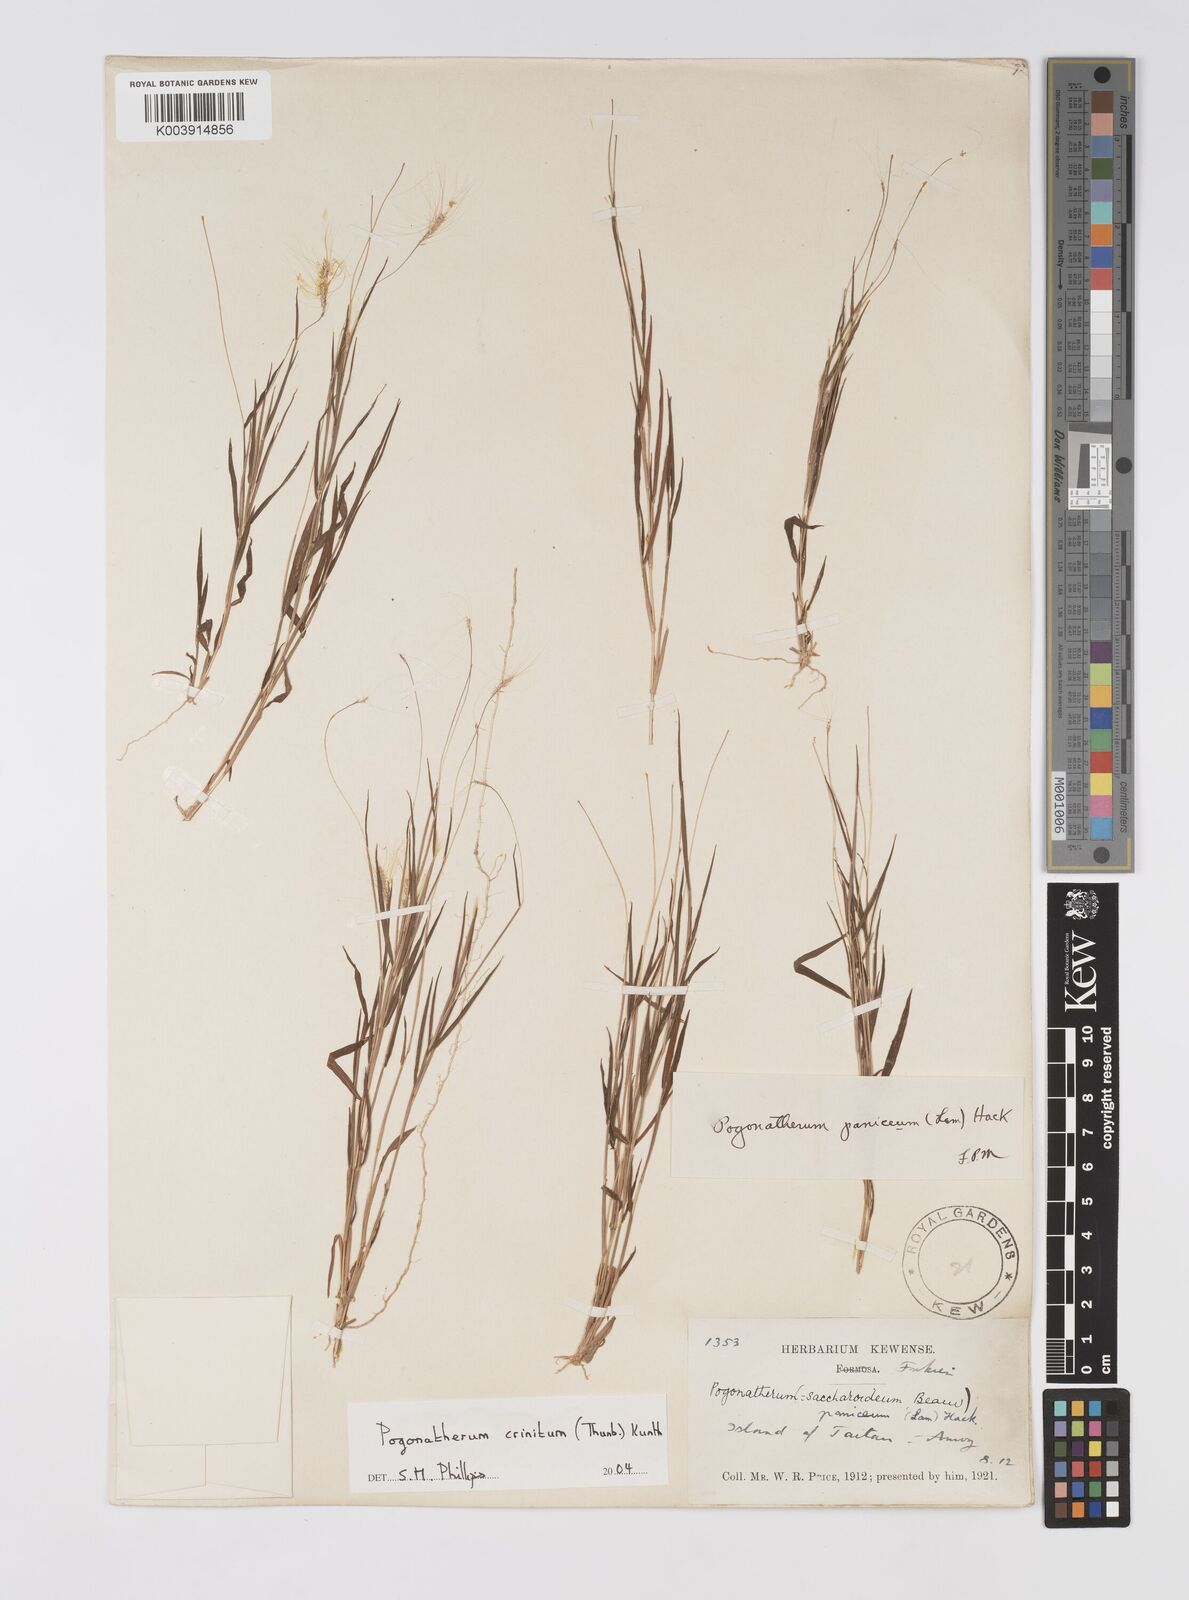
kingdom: Plantae
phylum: Tracheophyta
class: Liliopsida
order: Poales
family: Poaceae
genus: Pogonatherum
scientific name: Pogonatherum crinitum
